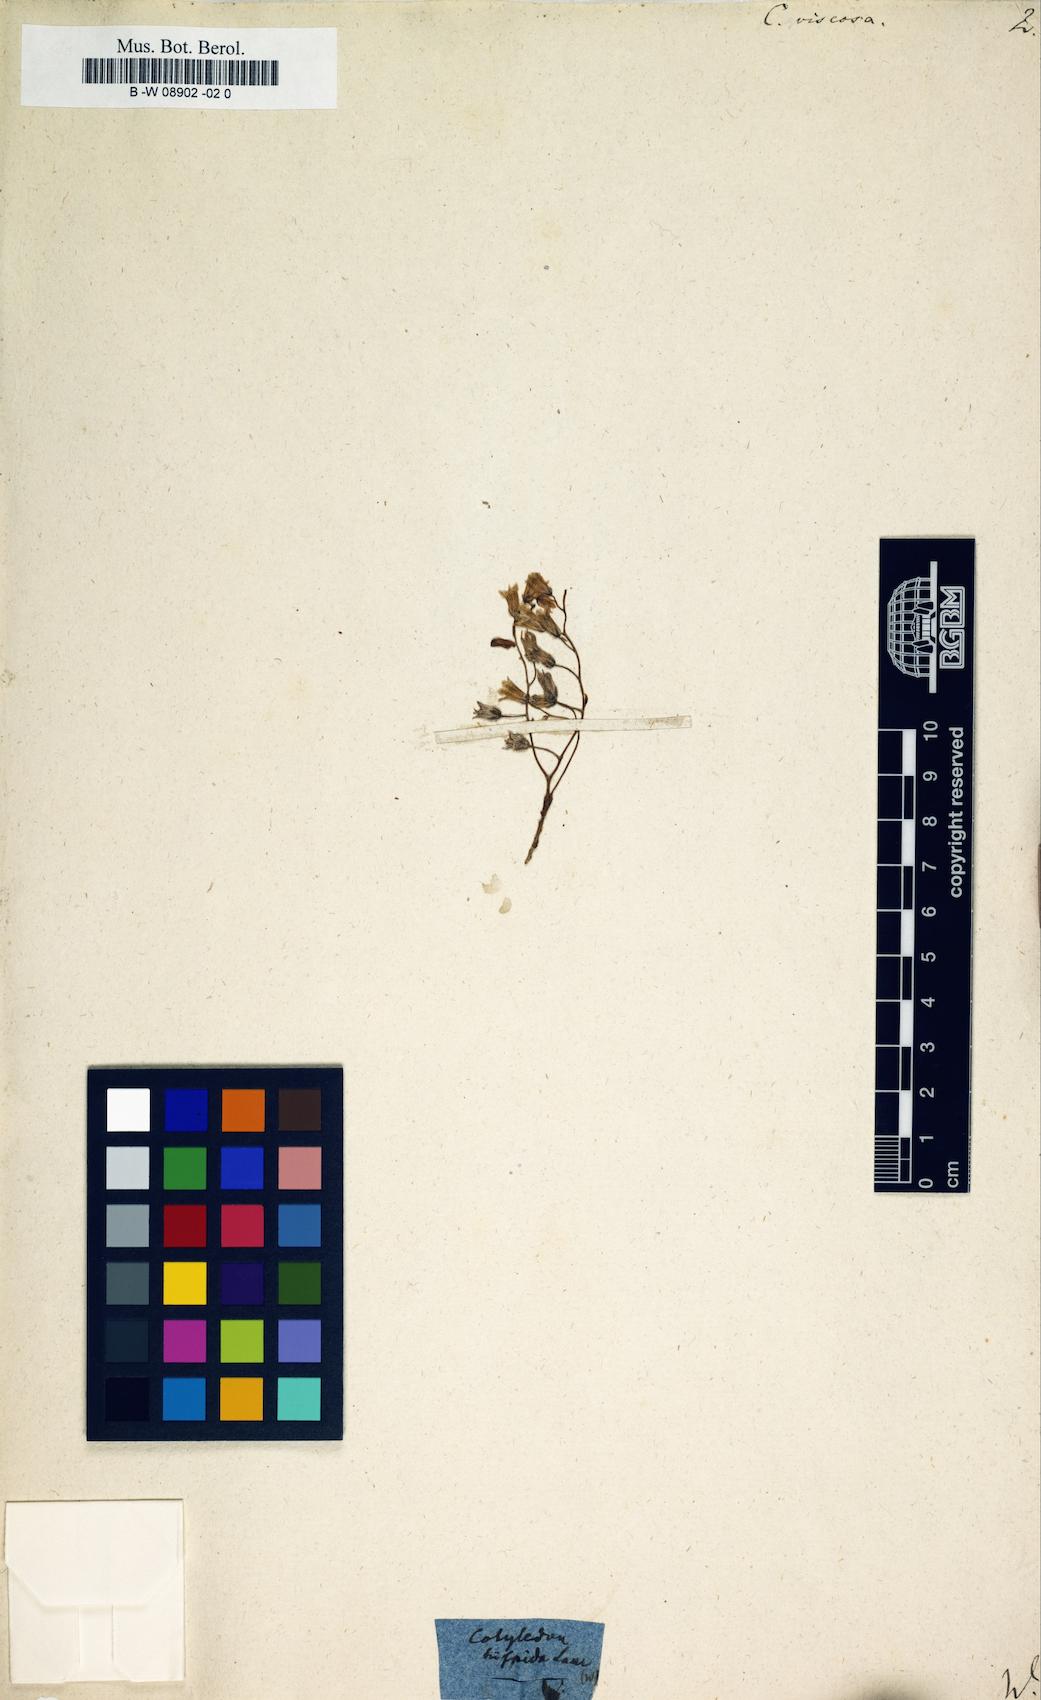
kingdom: Plantae
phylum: Tracheophyta
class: Magnoliopsida
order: Saxifragales
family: Crassulaceae
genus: Sedum
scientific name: Sedum mucizonia
